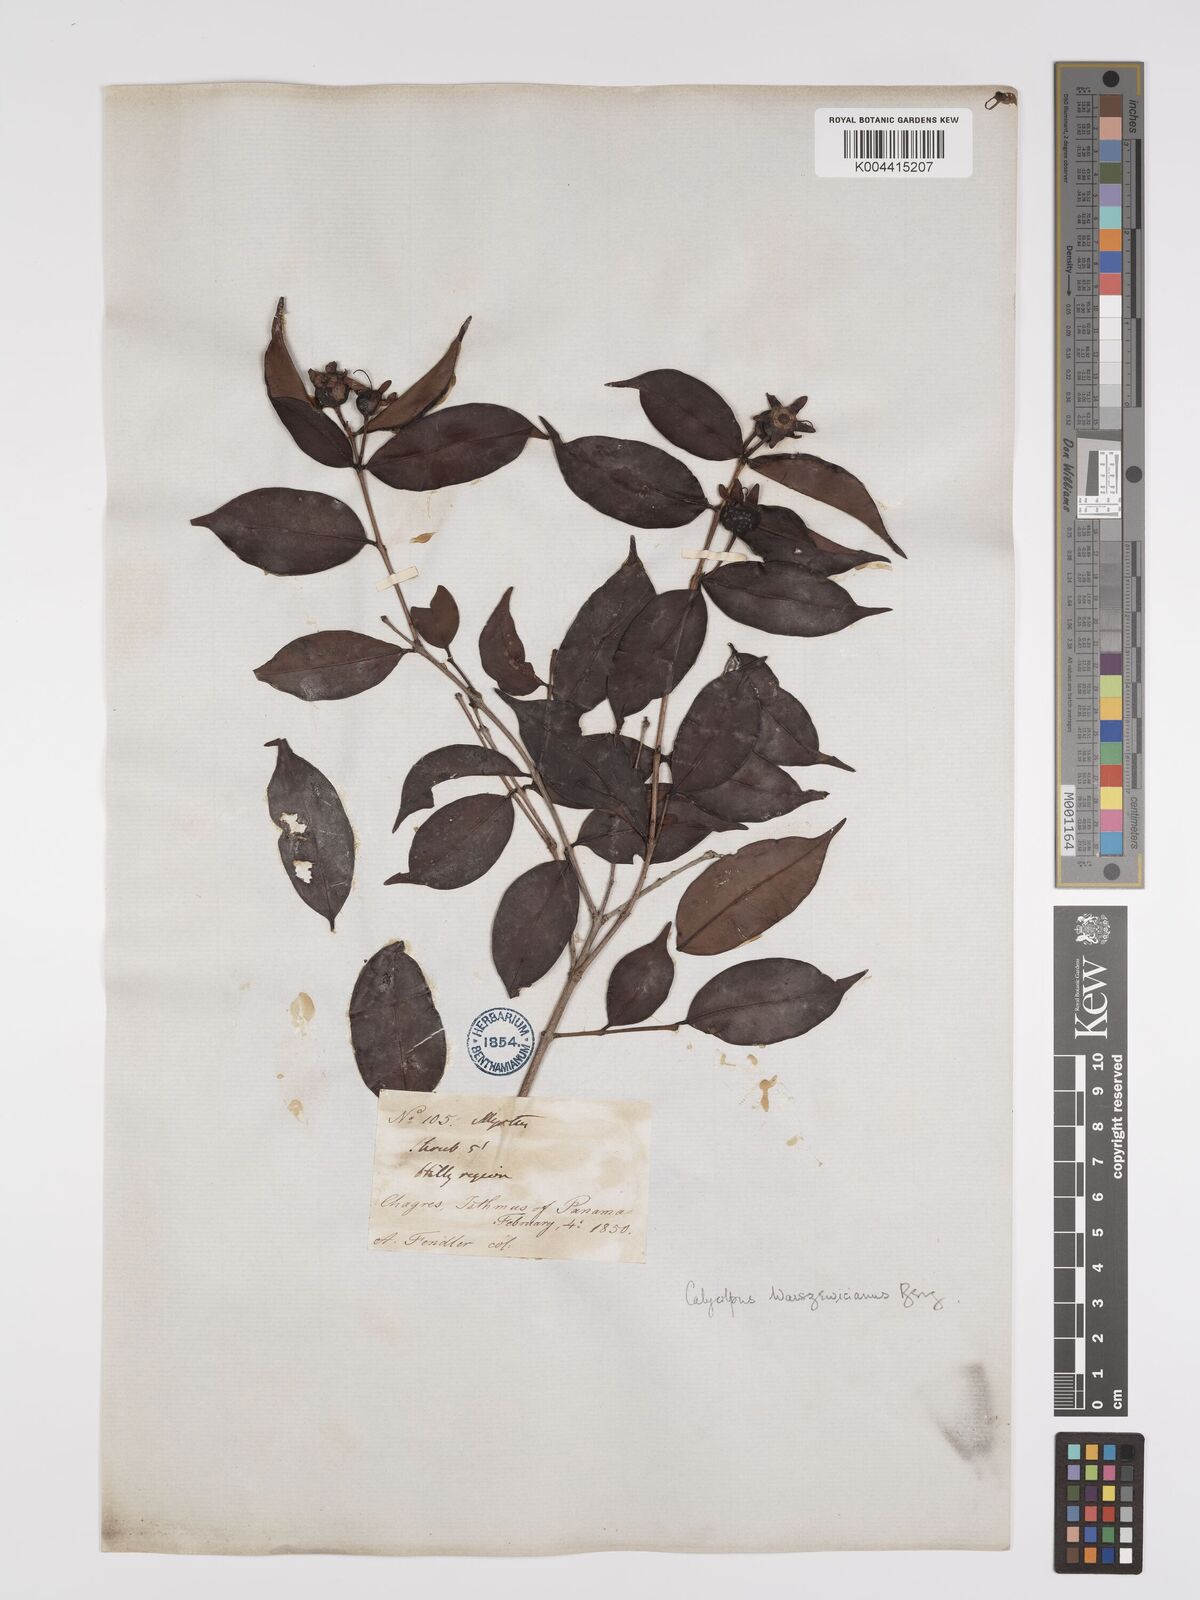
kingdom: Plantae
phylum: Tracheophyta
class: Magnoliopsida
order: Myrtales
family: Myrtaceae
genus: Calycolpus
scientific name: Calycolpus warszewiczianus
